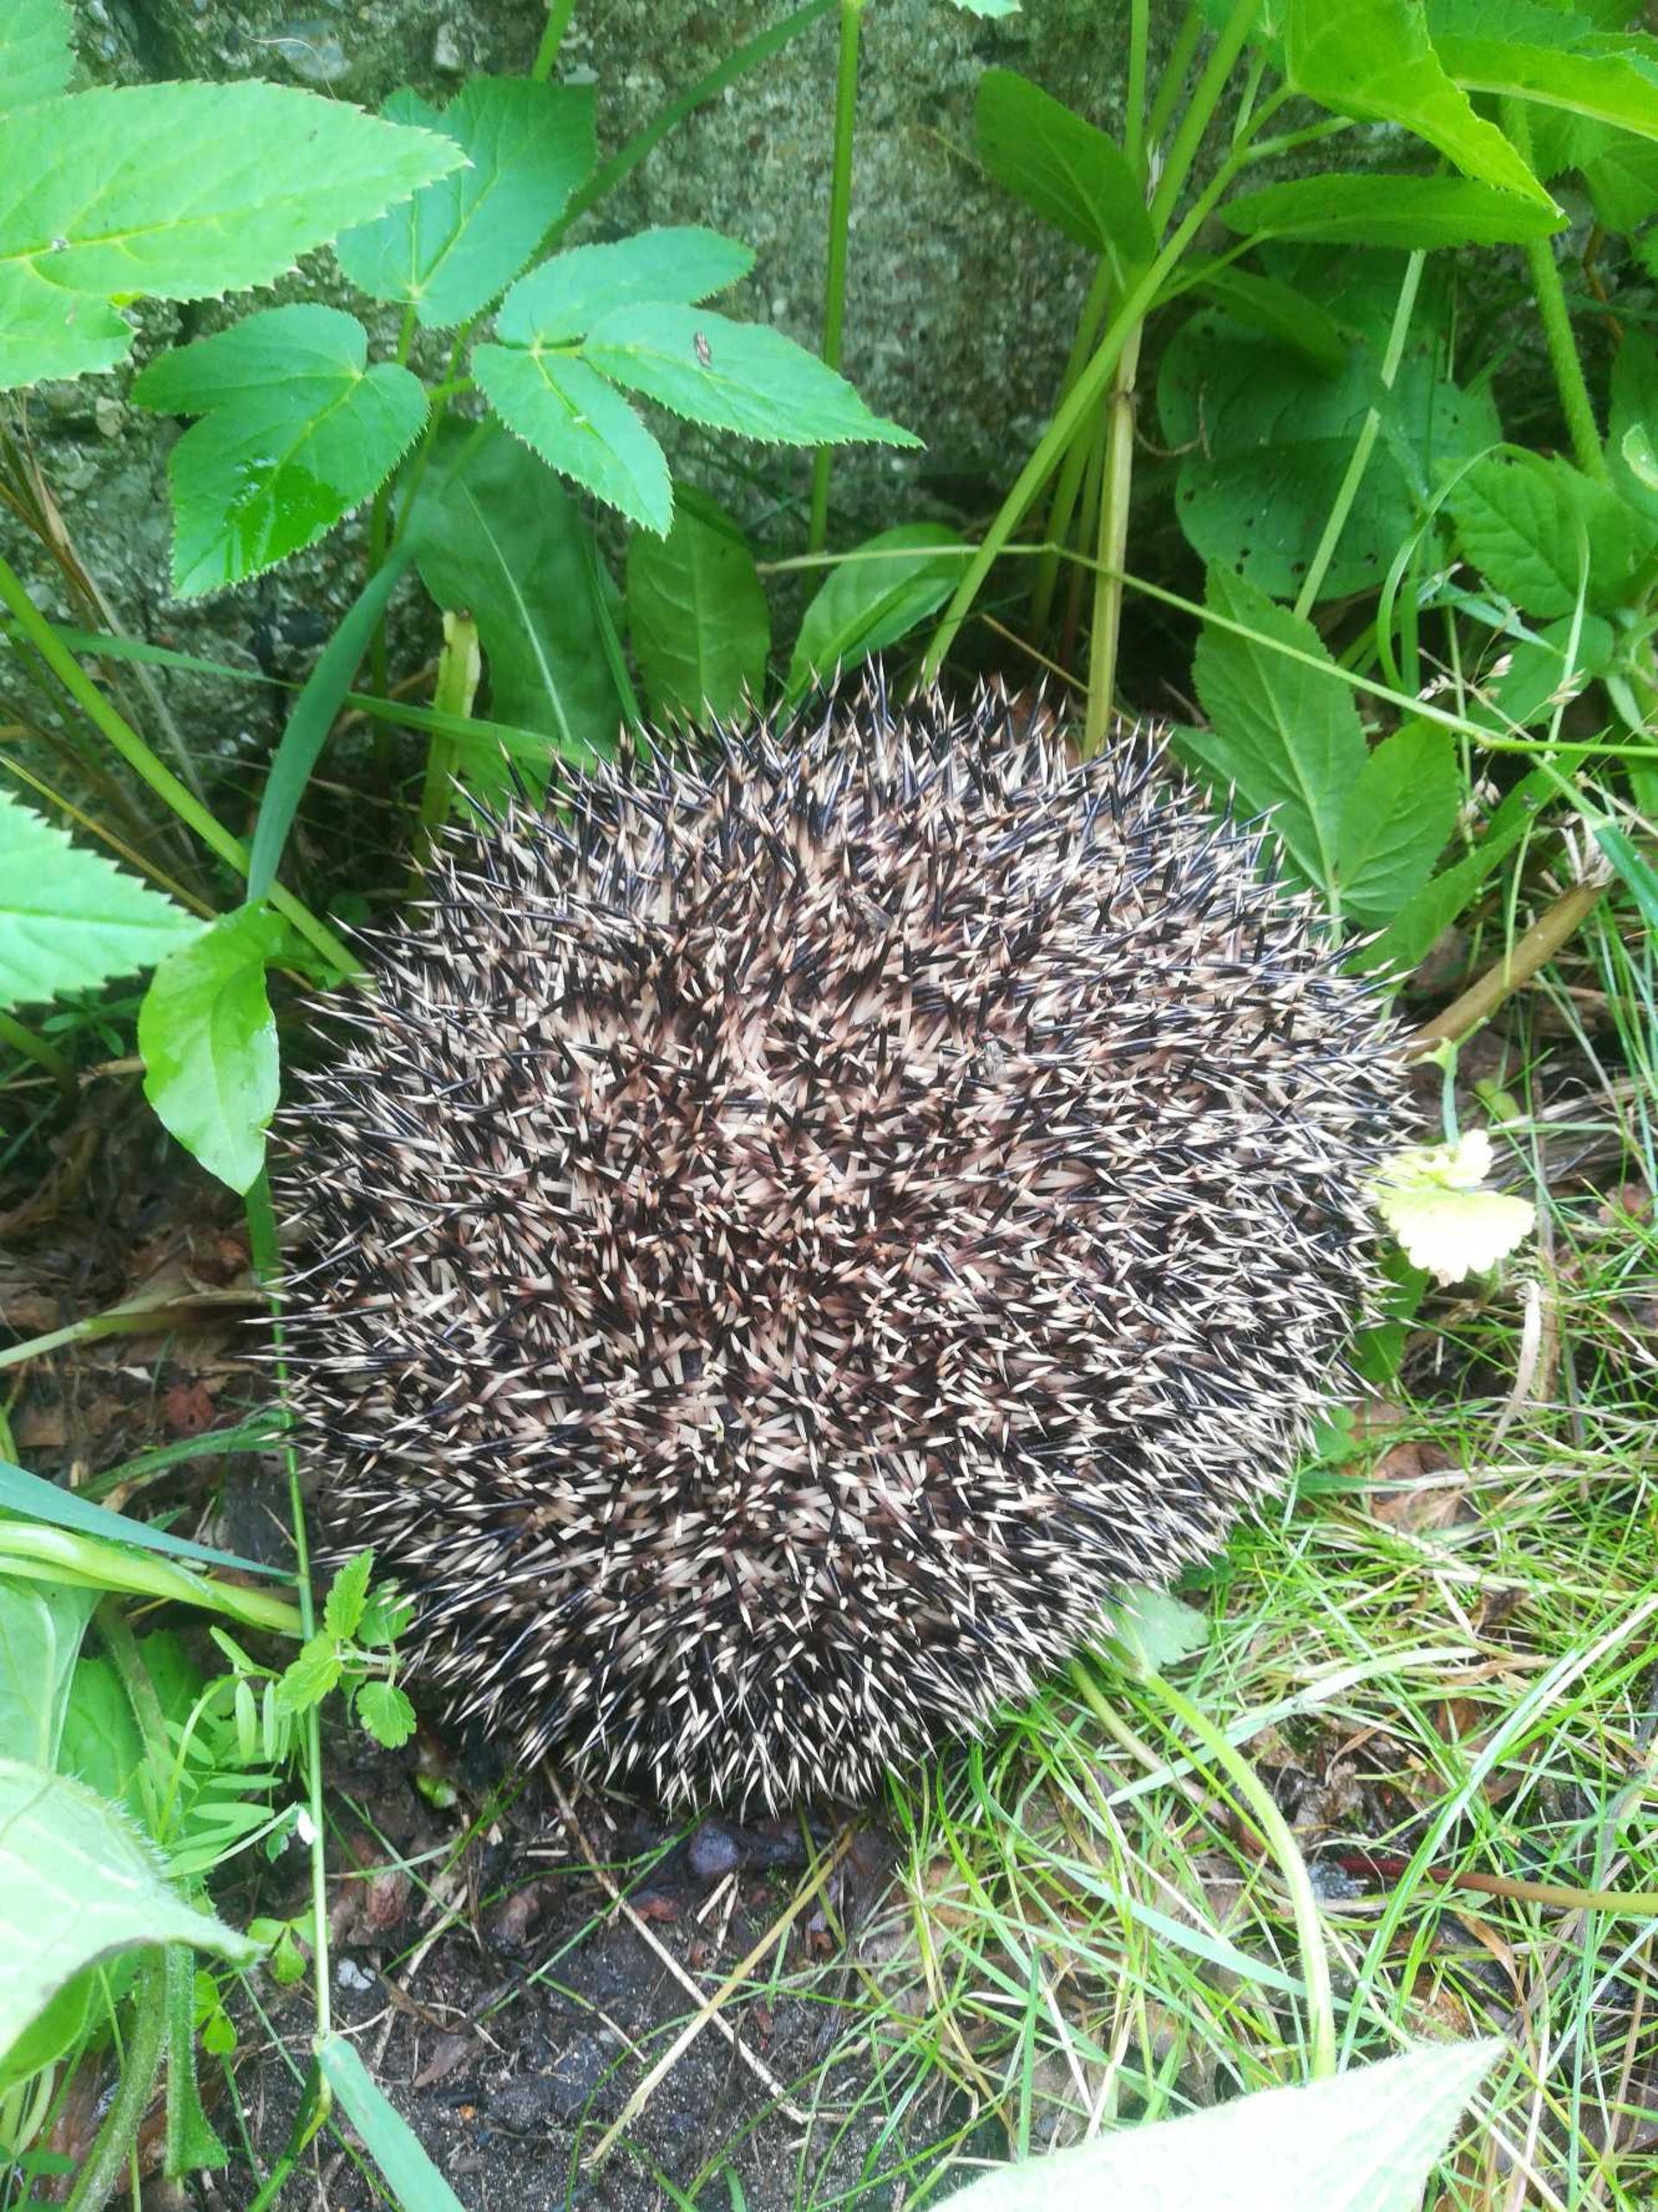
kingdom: Animalia
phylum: Chordata
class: Mammalia
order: Erinaceomorpha
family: Erinaceidae
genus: Erinaceus
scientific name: Erinaceus europaeus
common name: Pindsvin
